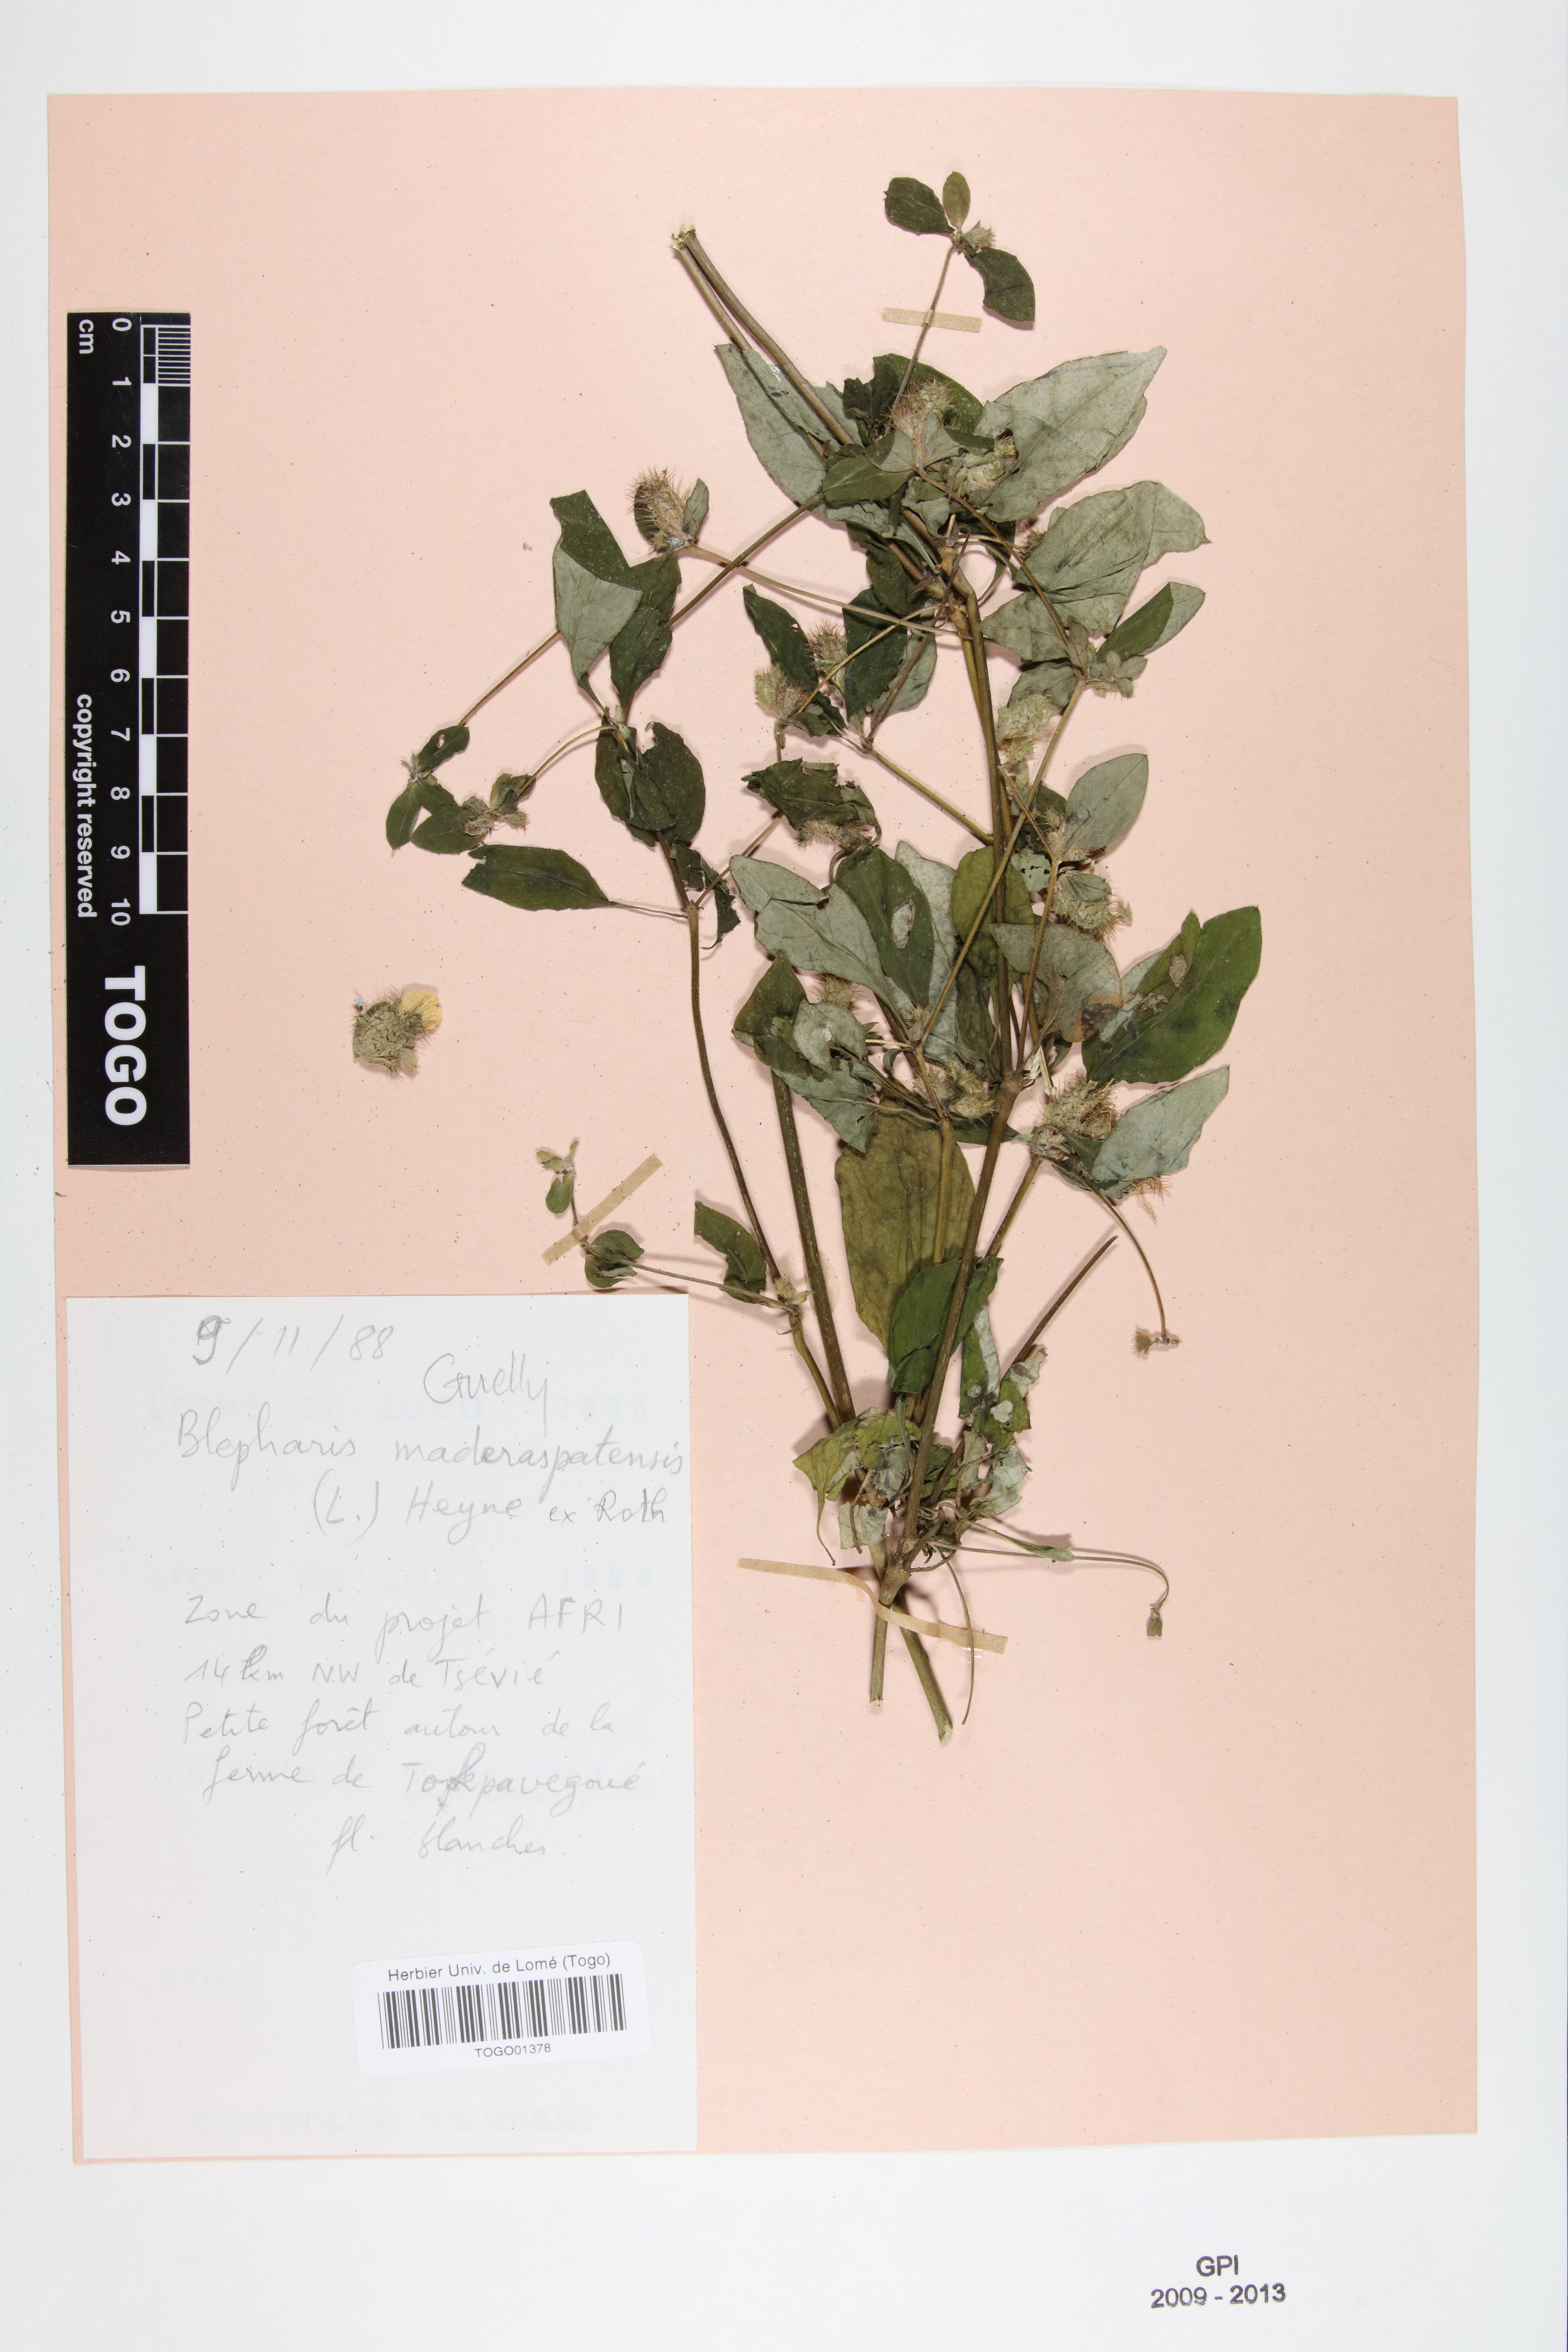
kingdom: Plantae
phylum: Tracheophyta
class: Magnoliopsida
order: Lamiales
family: Acanthaceae
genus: Blepharis
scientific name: Blepharis maderaspatensis
